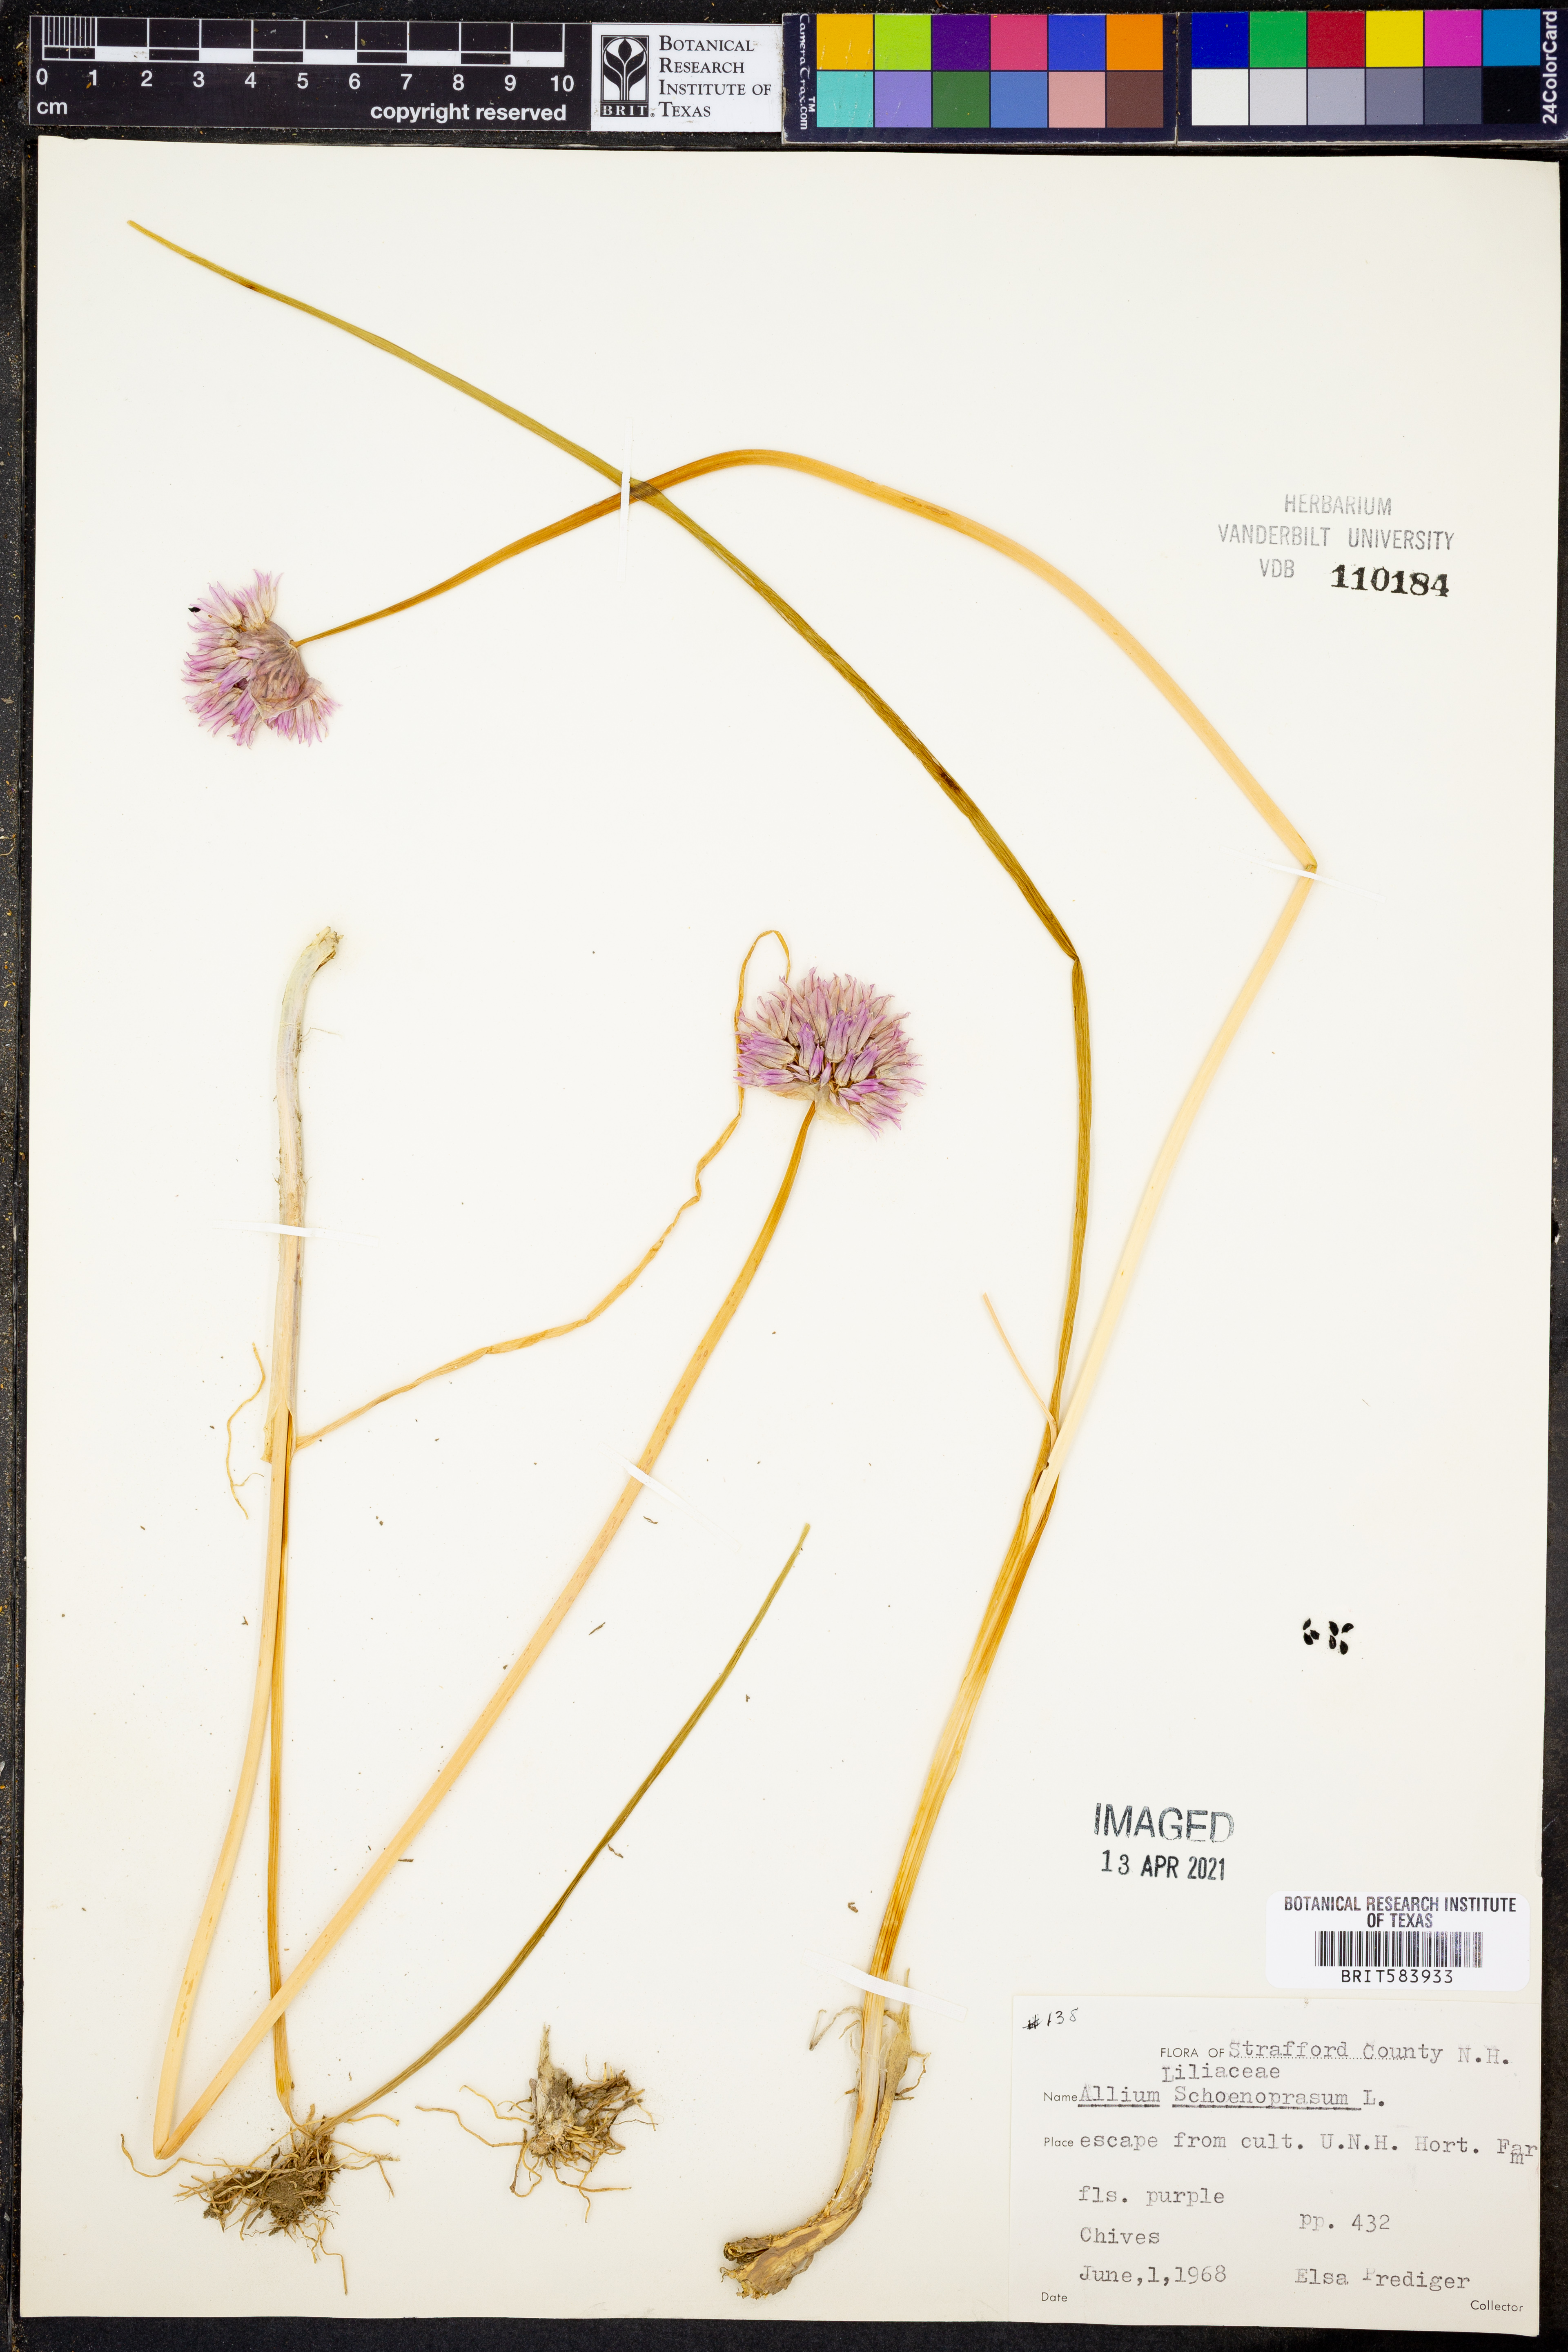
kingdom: Plantae
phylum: Tracheophyta
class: Liliopsida
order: Asparagales
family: Amaryllidaceae
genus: Allium
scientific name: Allium schoenoprasum
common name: Chives
